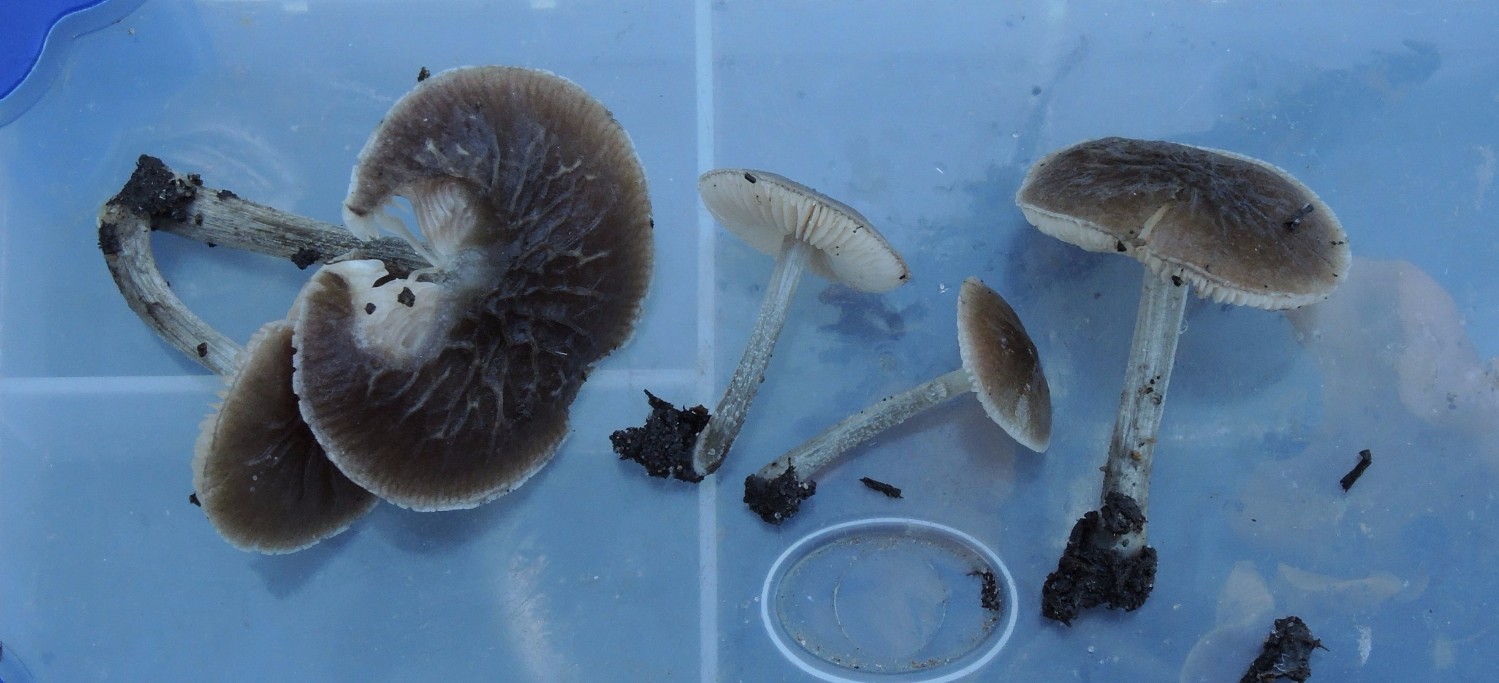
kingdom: Fungi
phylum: Basidiomycota
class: Agaricomycetes
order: Agaricales
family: Pluteaceae
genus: Pluteus
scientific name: Pluteus
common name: gråstokket skærmhat
